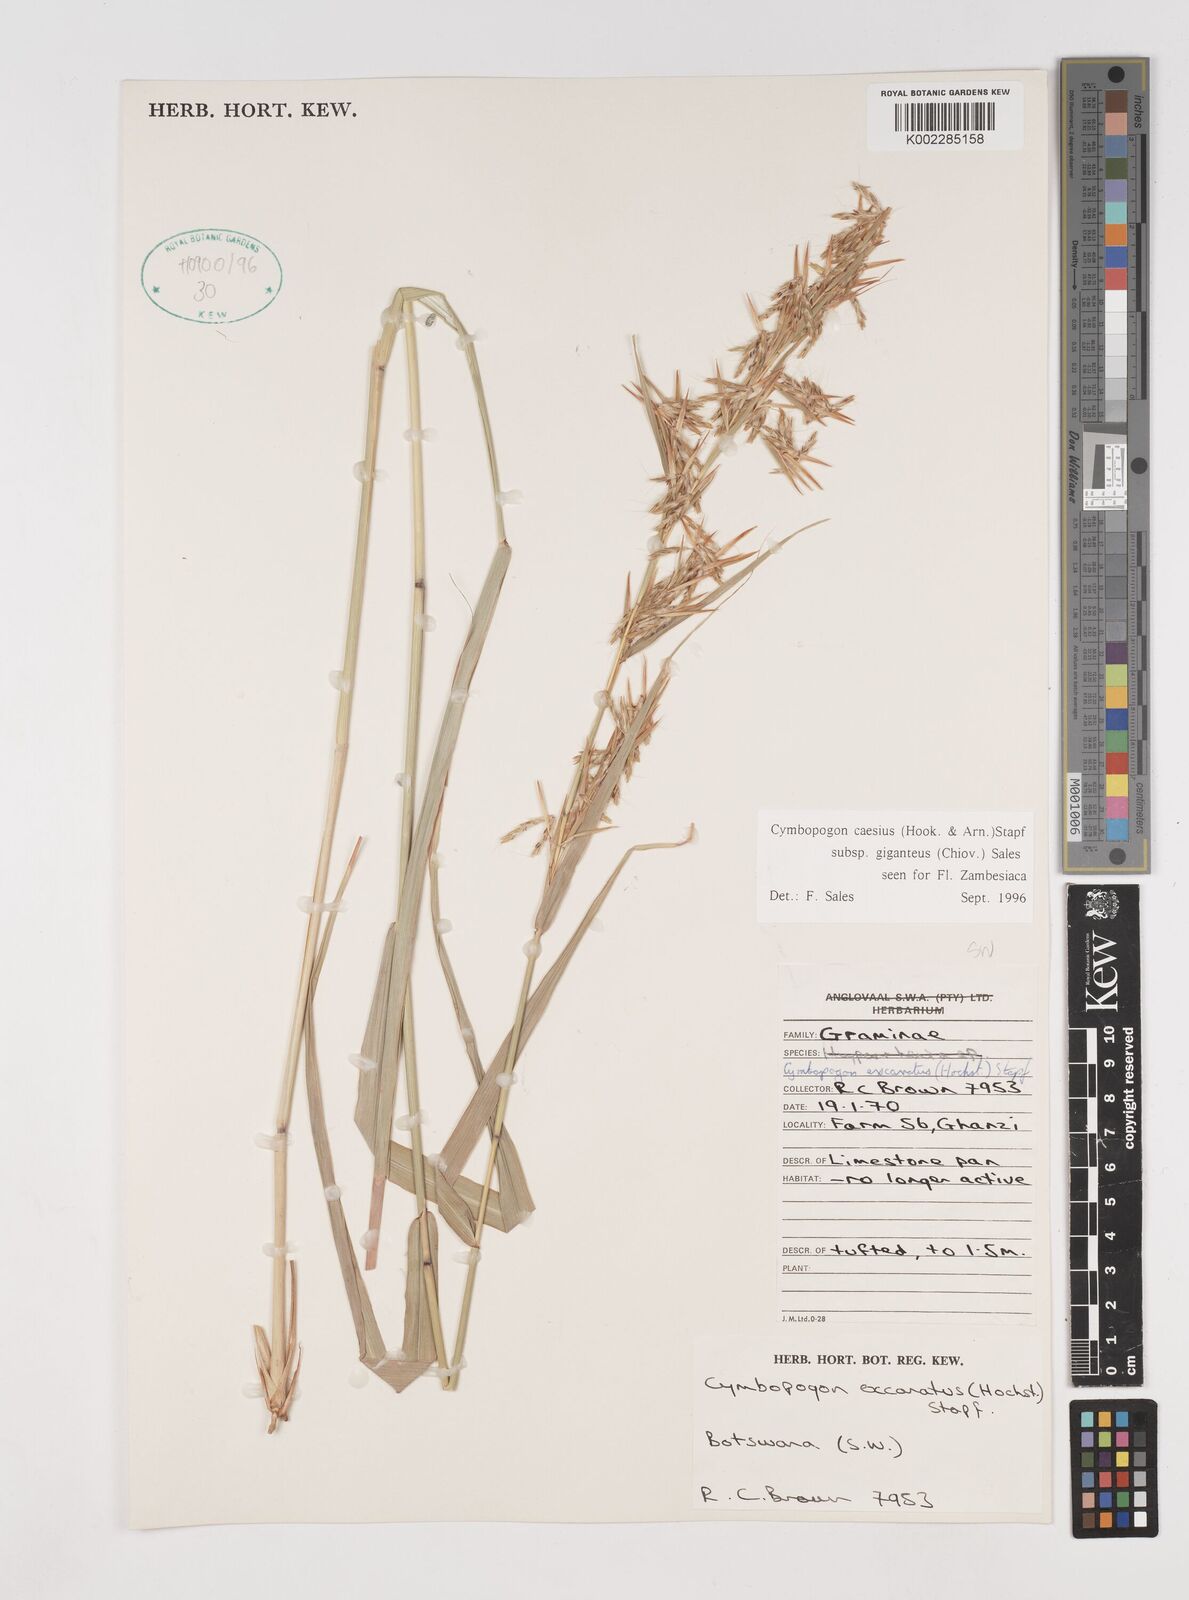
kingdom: Plantae
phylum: Tracheophyta
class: Liliopsida
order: Poales
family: Poaceae
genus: Cymbopogon
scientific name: Cymbopogon giganteus
